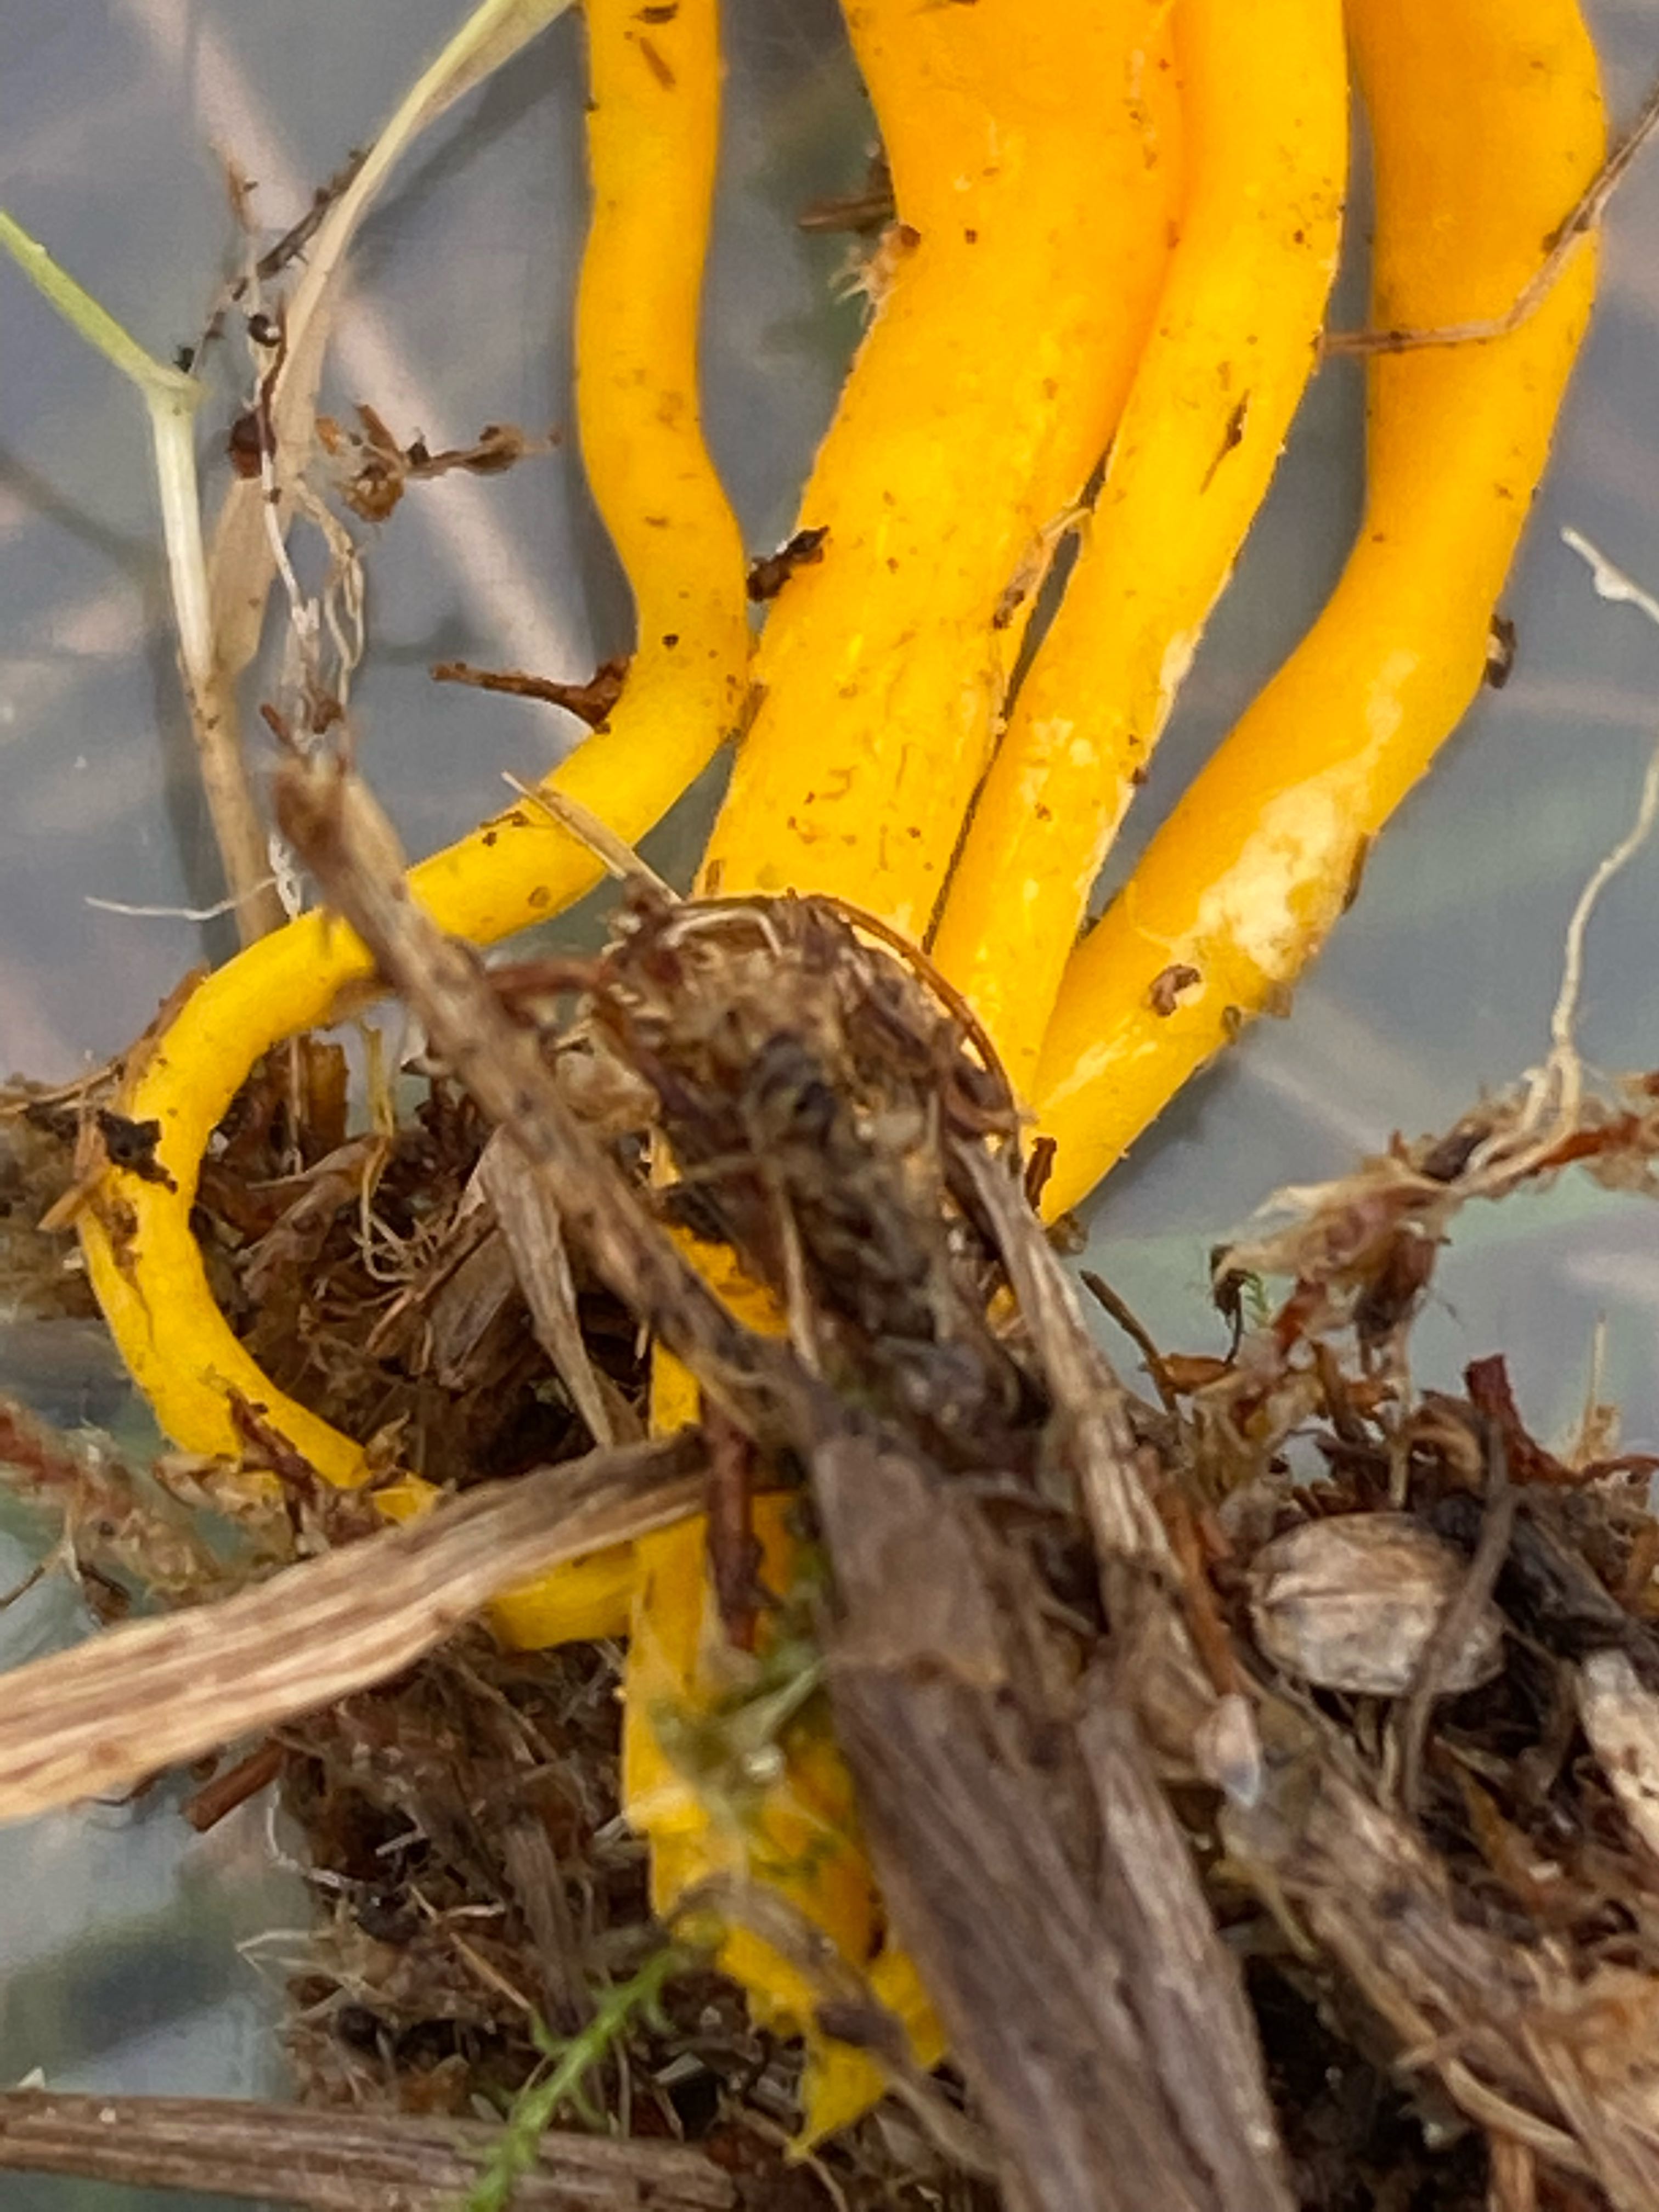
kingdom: Fungi
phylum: Basidiomycota
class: Agaricomycetes
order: Agaricales
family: Clavariaceae
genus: Clavulinopsis
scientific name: Clavulinopsis helvola
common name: orangegul køllesvamp
